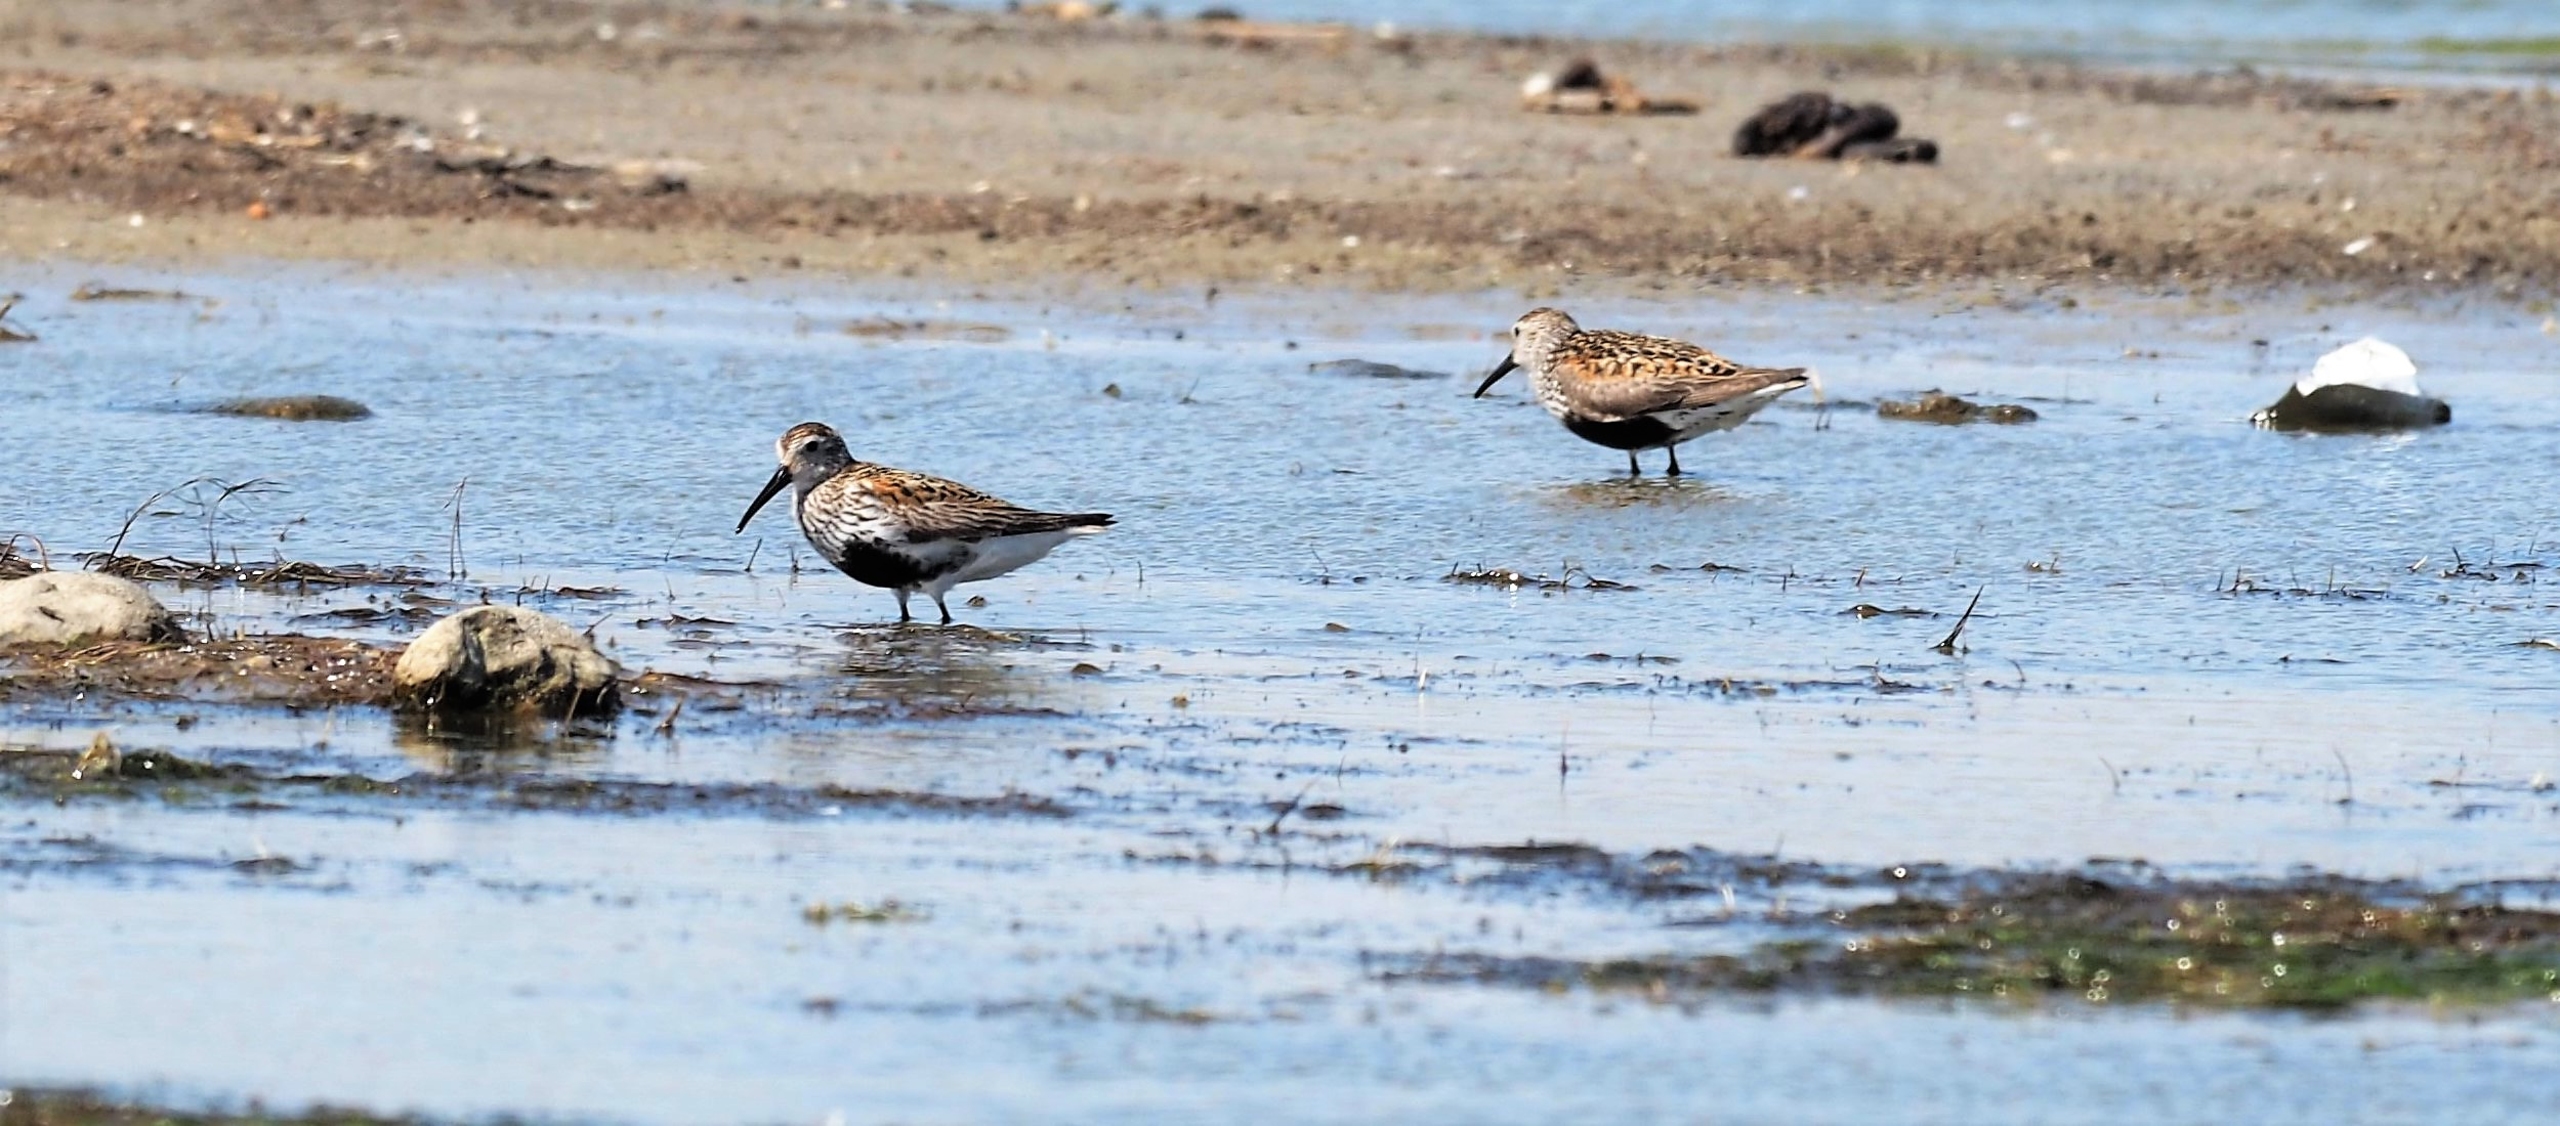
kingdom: Animalia
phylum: Chordata
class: Aves
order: Charadriiformes
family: Scolopacidae
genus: Calidris
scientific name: Calidris alpina
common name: Almindelig ryle
